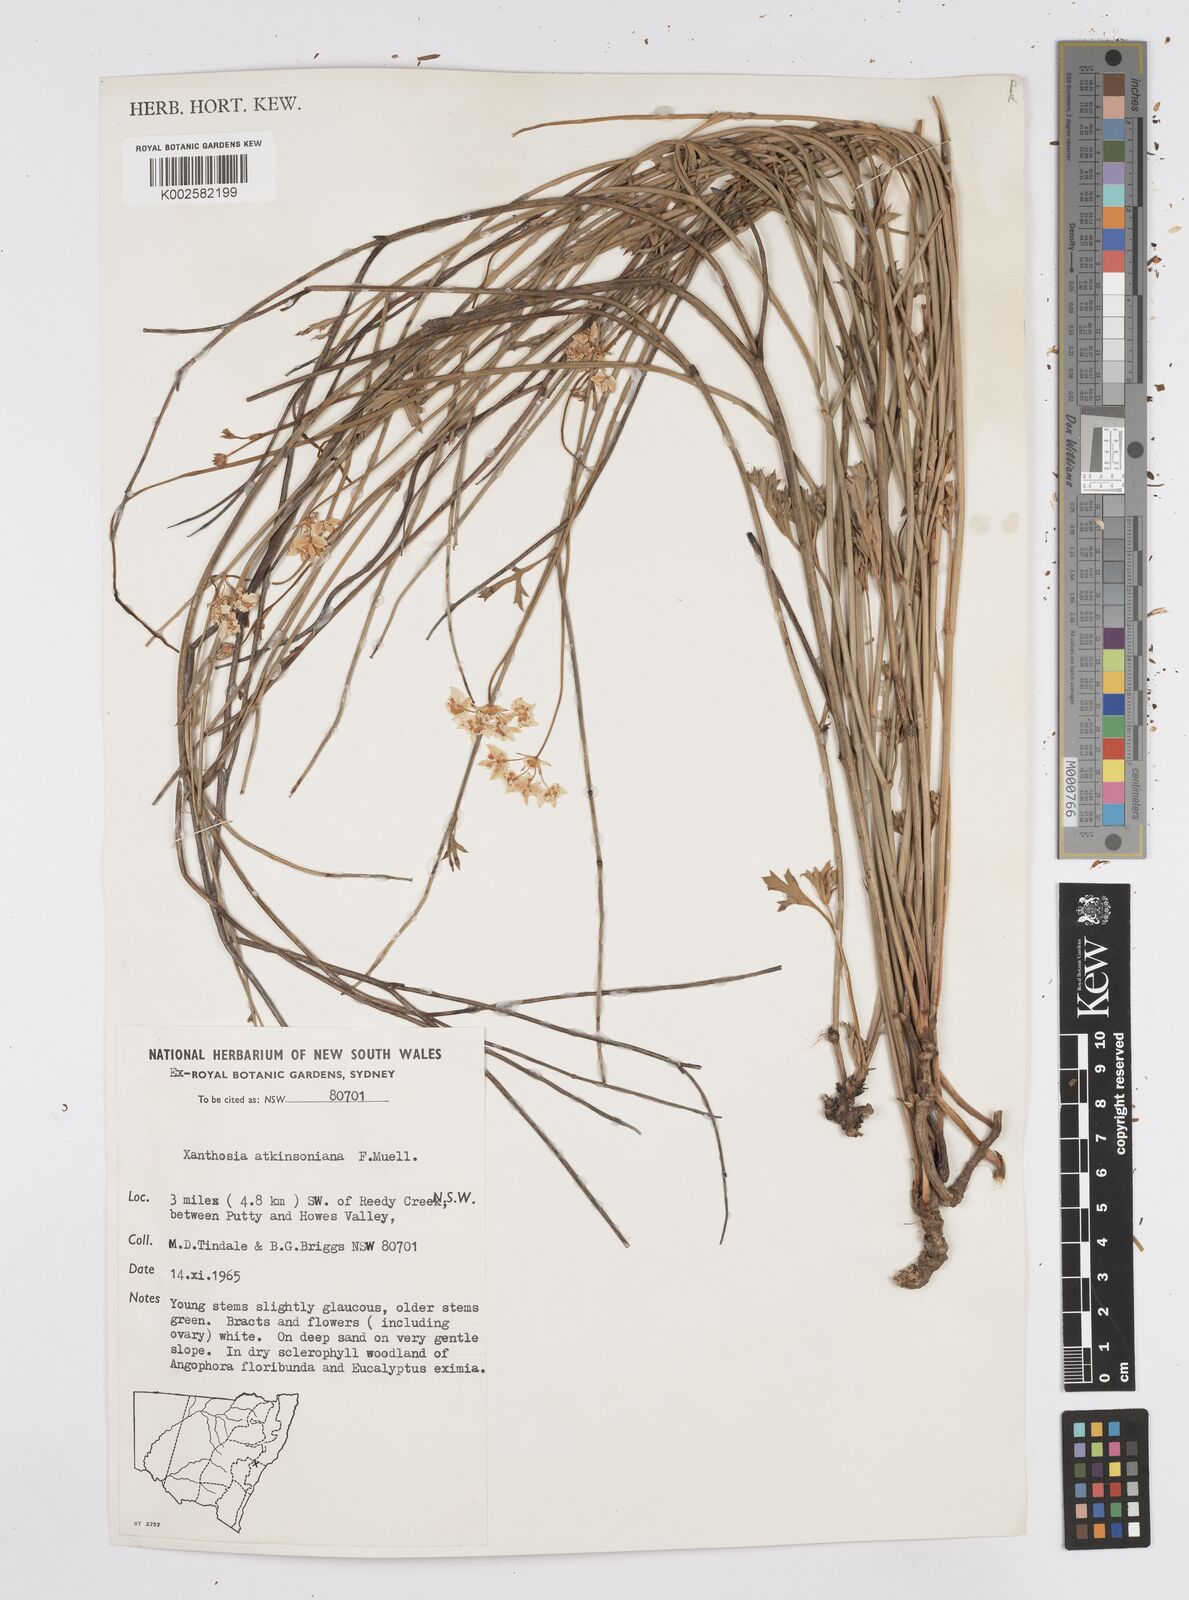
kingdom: Plantae
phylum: Tracheophyta
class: Magnoliopsida
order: Apiales
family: Apiaceae
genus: Xanthosia
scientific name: Xanthosia atkinsoniana
